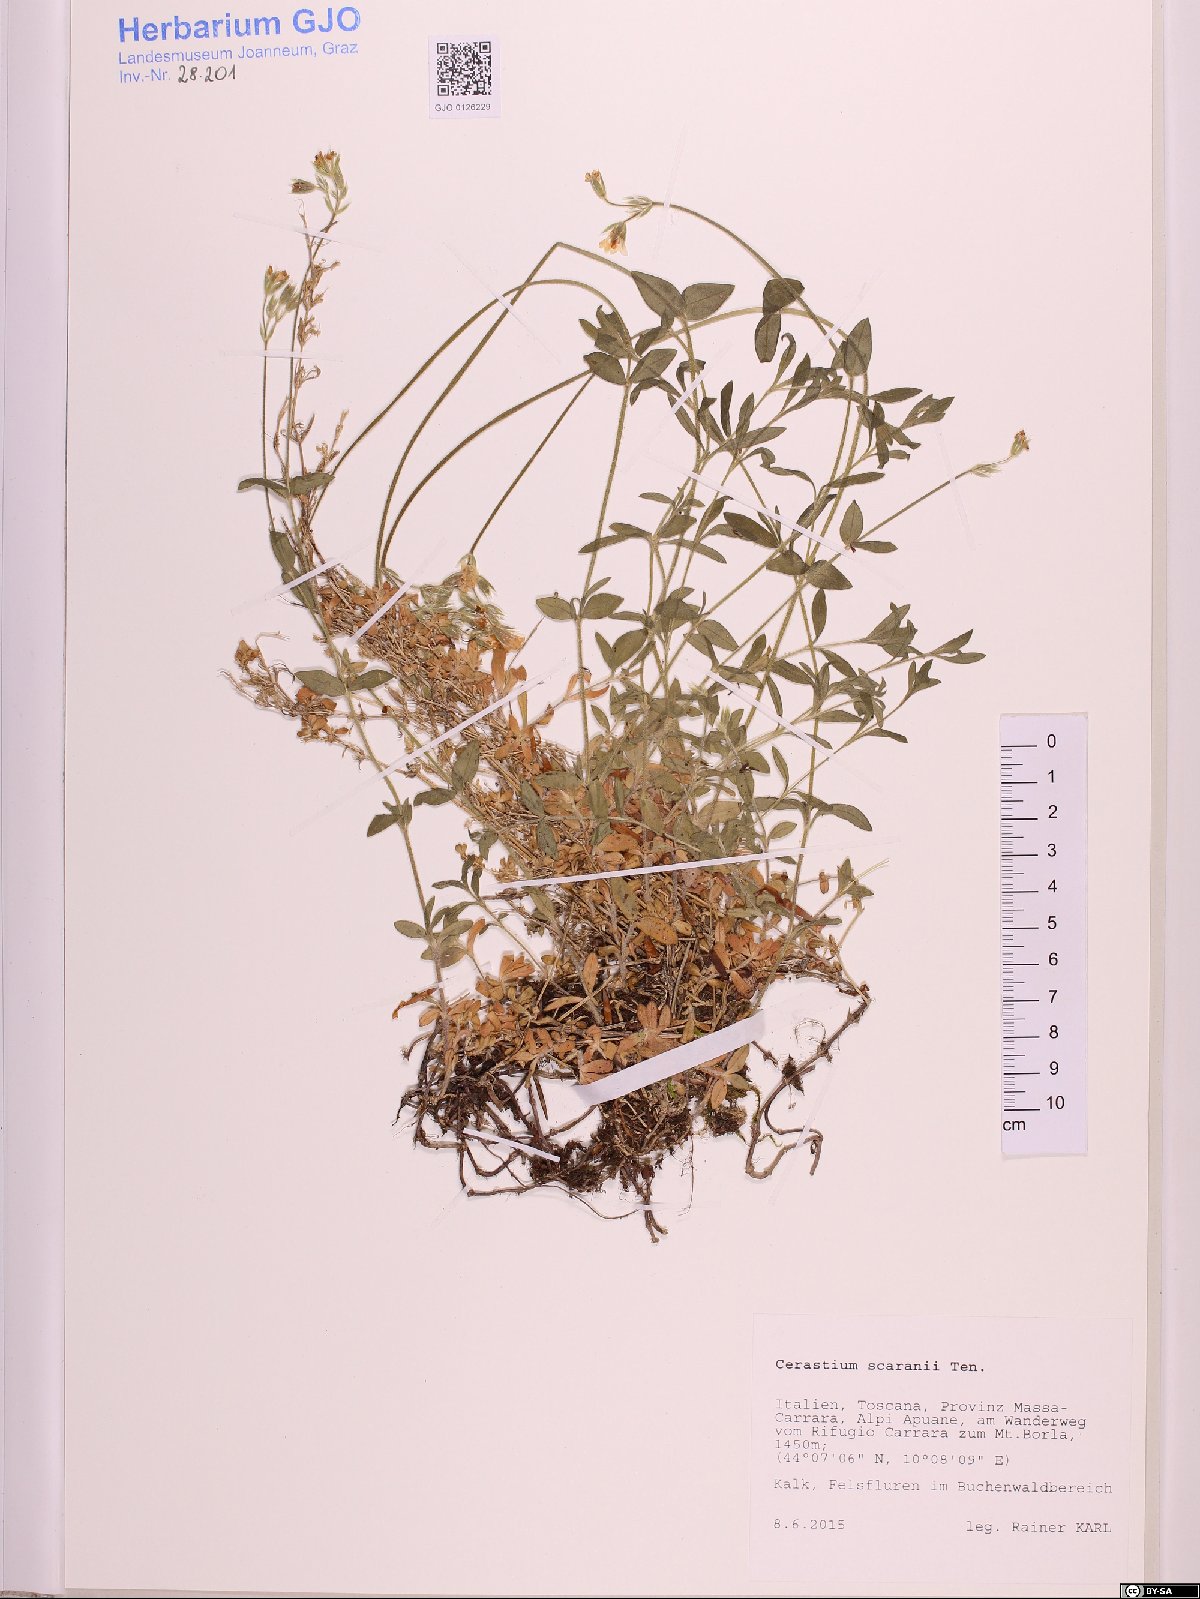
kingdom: Plantae
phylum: Tracheophyta
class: Magnoliopsida
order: Caryophyllales
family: Caryophyllaceae
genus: Cerastium
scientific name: Cerastium scaranii
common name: Italian mouse-ear
